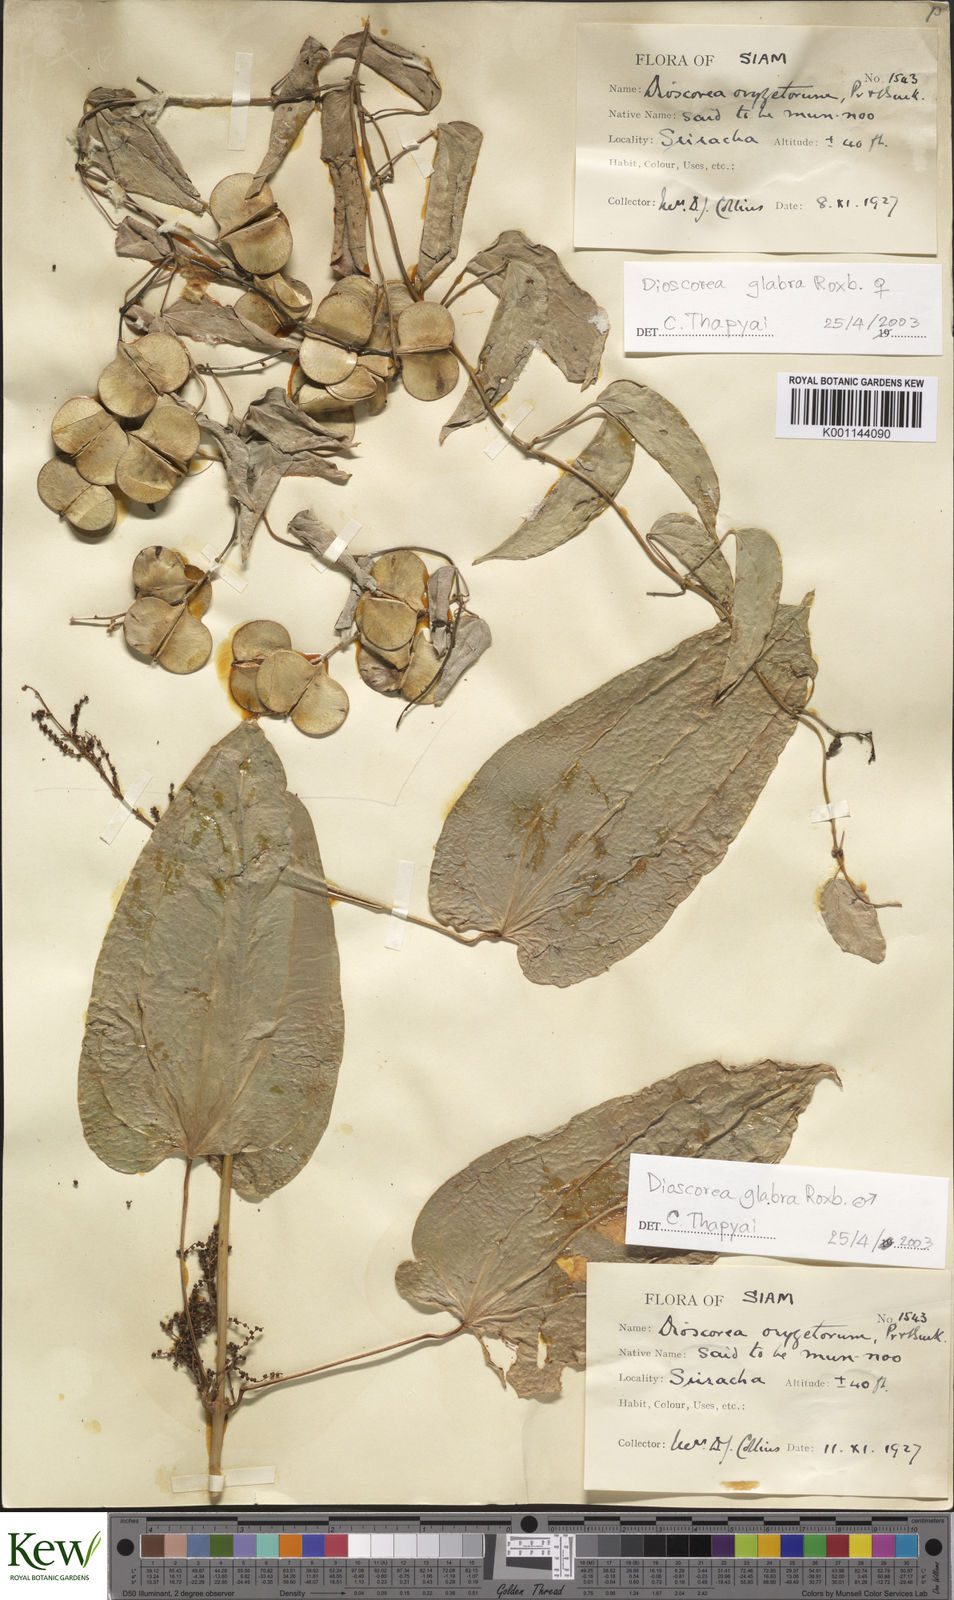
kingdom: Plantae
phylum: Tracheophyta
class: Liliopsida
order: Dioscoreales
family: Dioscoreaceae
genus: Dioscorea
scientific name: Dioscorea glabra
